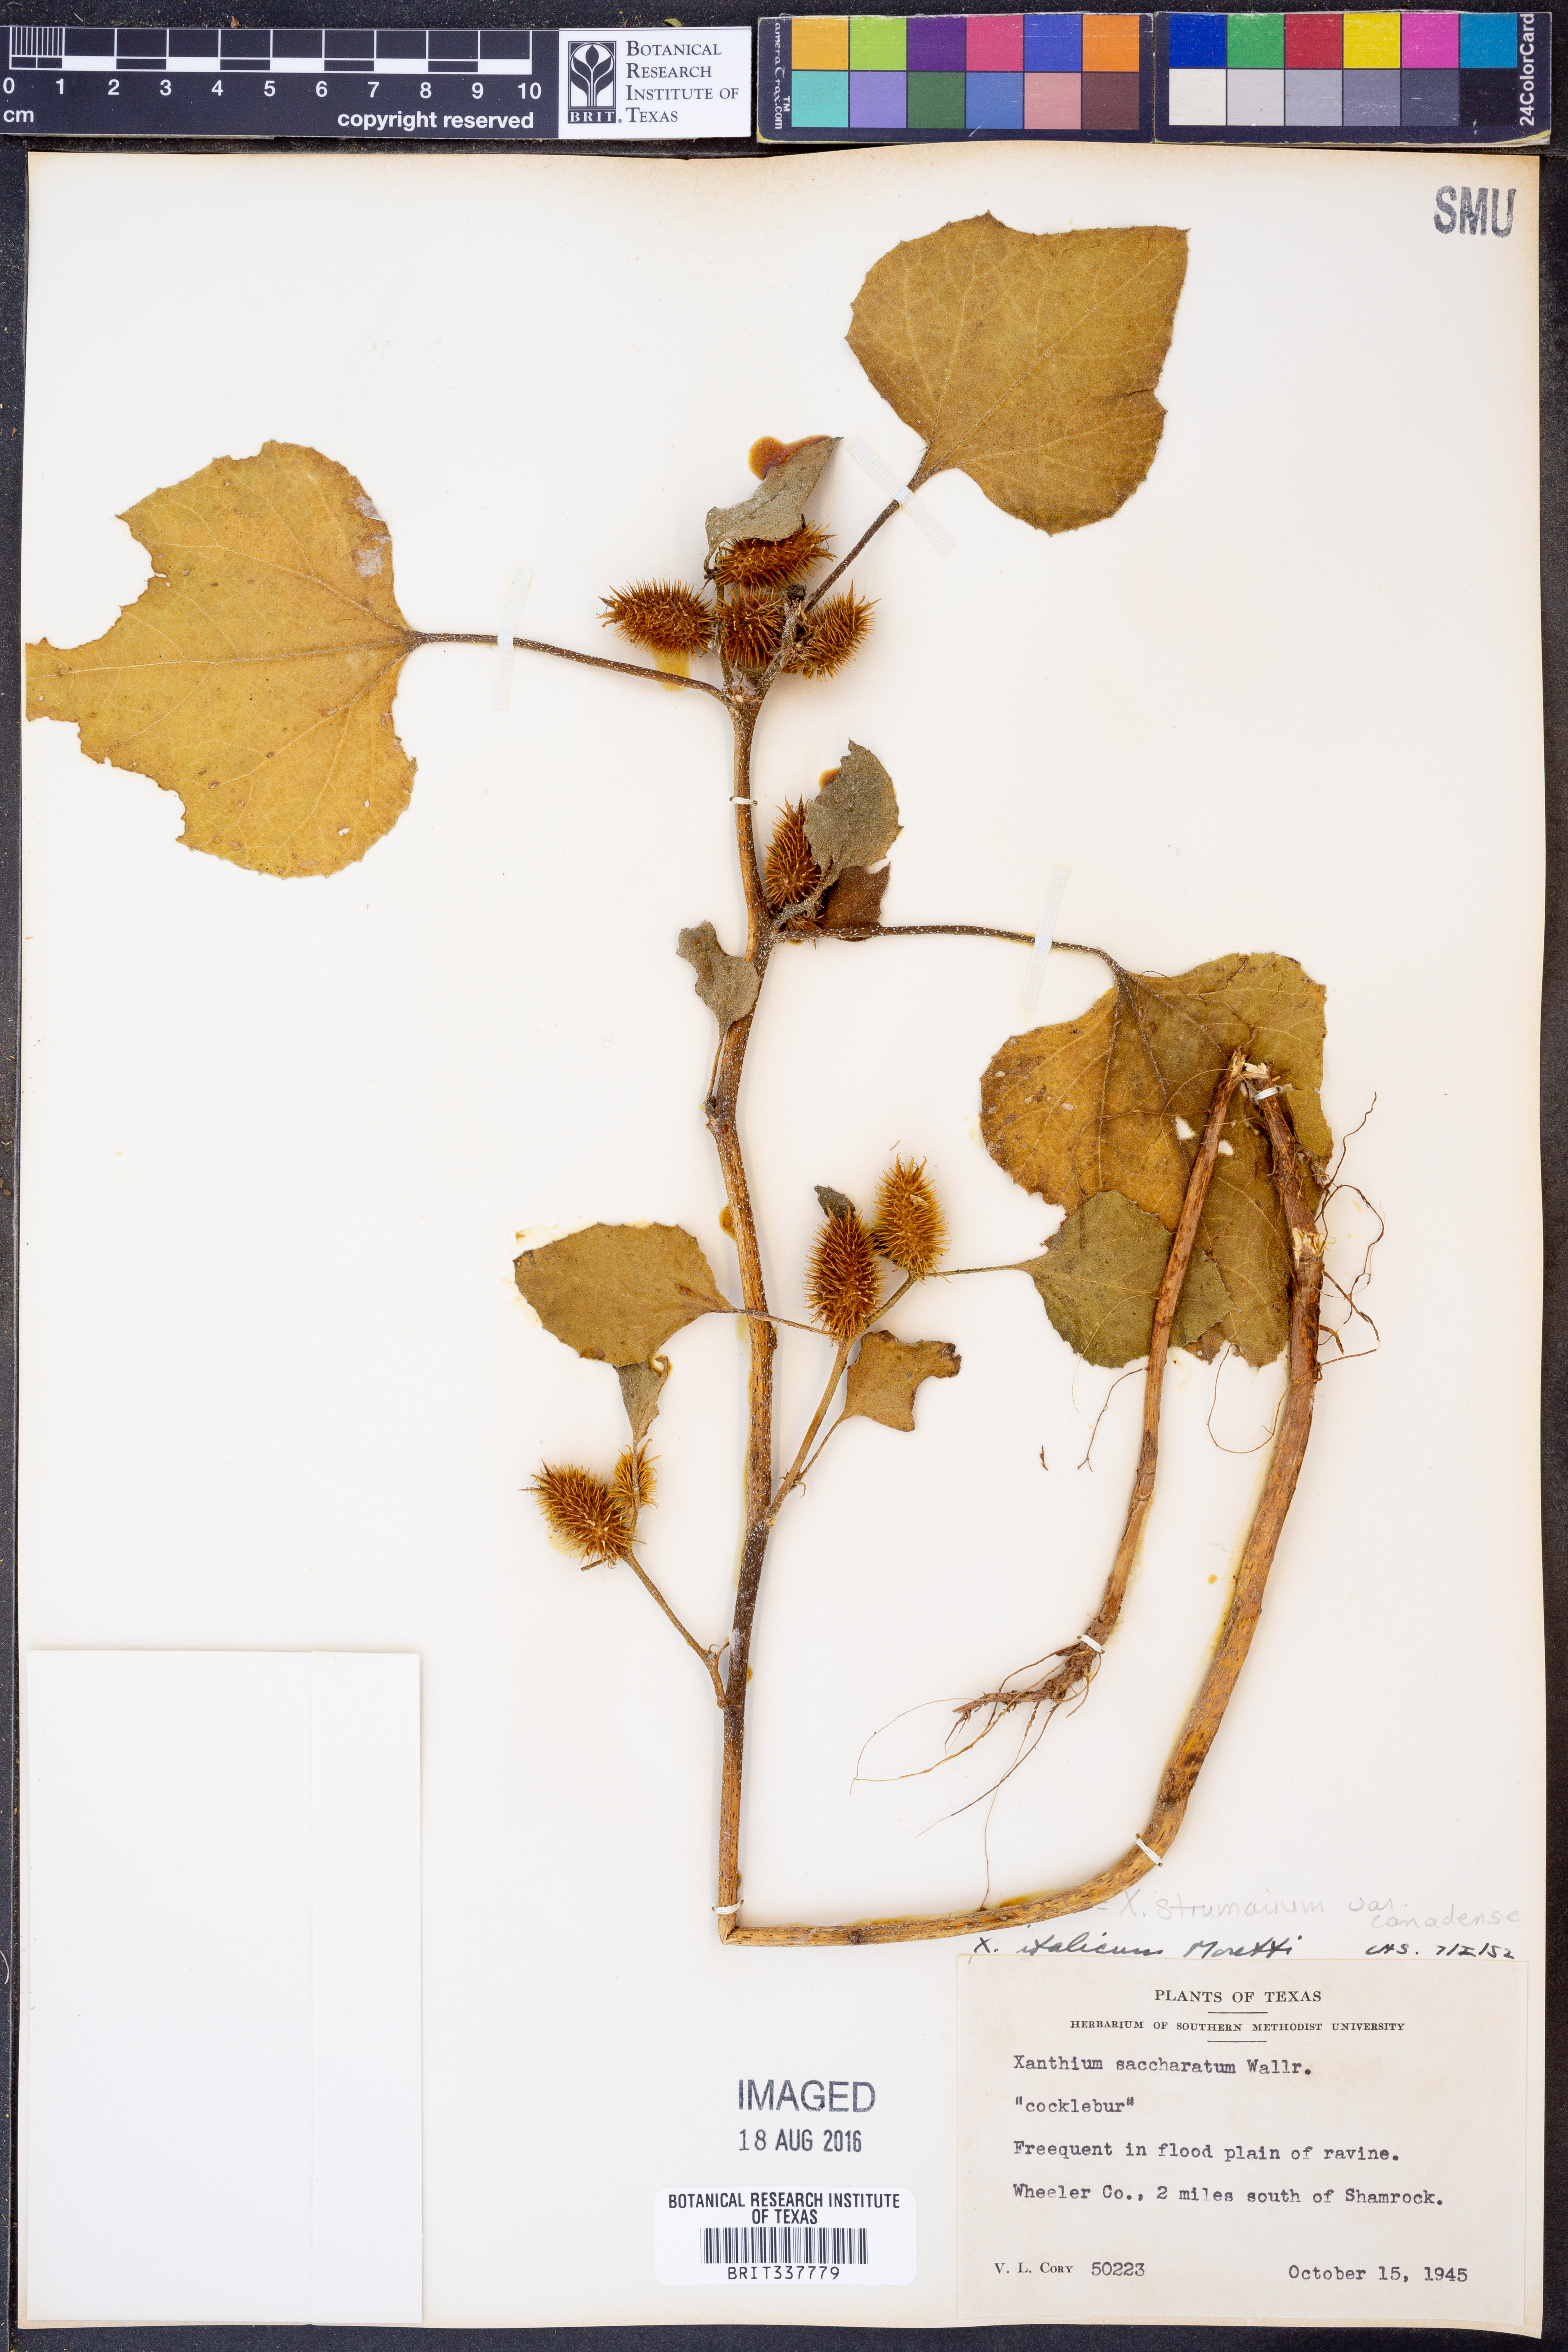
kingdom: Plantae
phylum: Tracheophyta
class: Magnoliopsida
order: Asterales
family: Asteraceae
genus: Xanthium
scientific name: Xanthium orientale
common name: Californian burr
